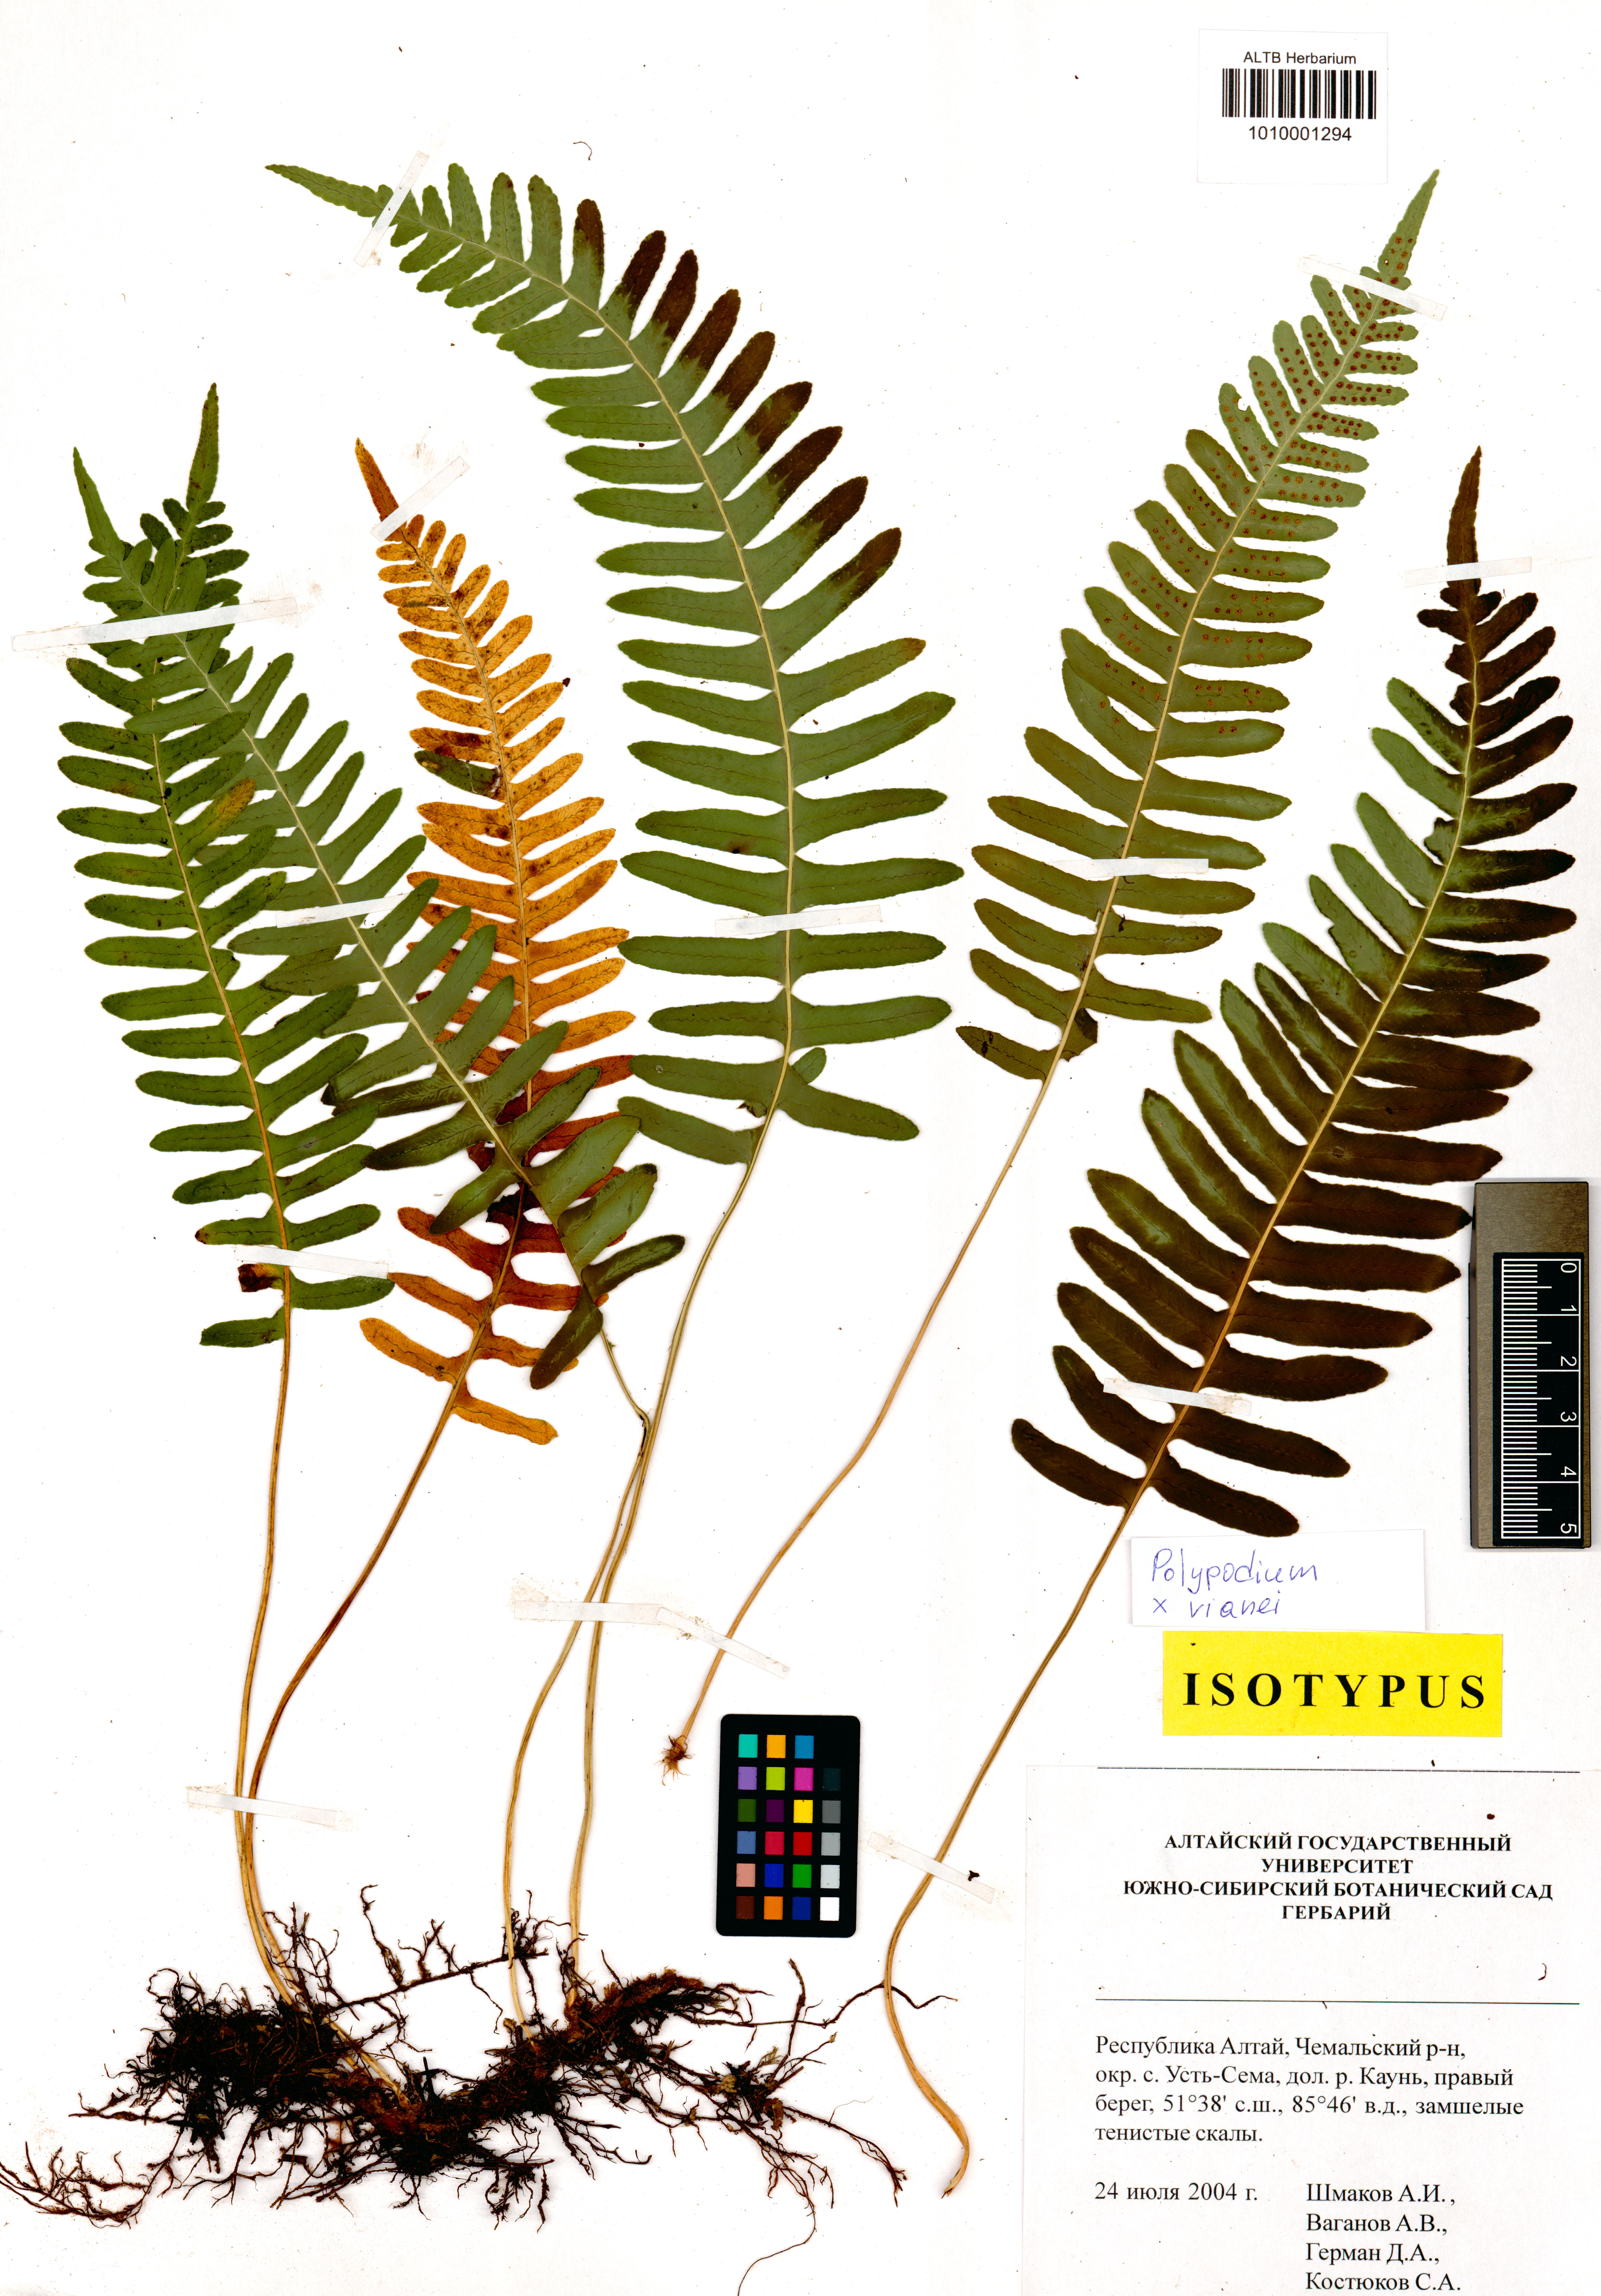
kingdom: Plantae
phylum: Tracheophyta
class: Polypodiopsida
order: Polypodiales
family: Polypodiaceae
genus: Polypodium
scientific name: Polypodium vianei
